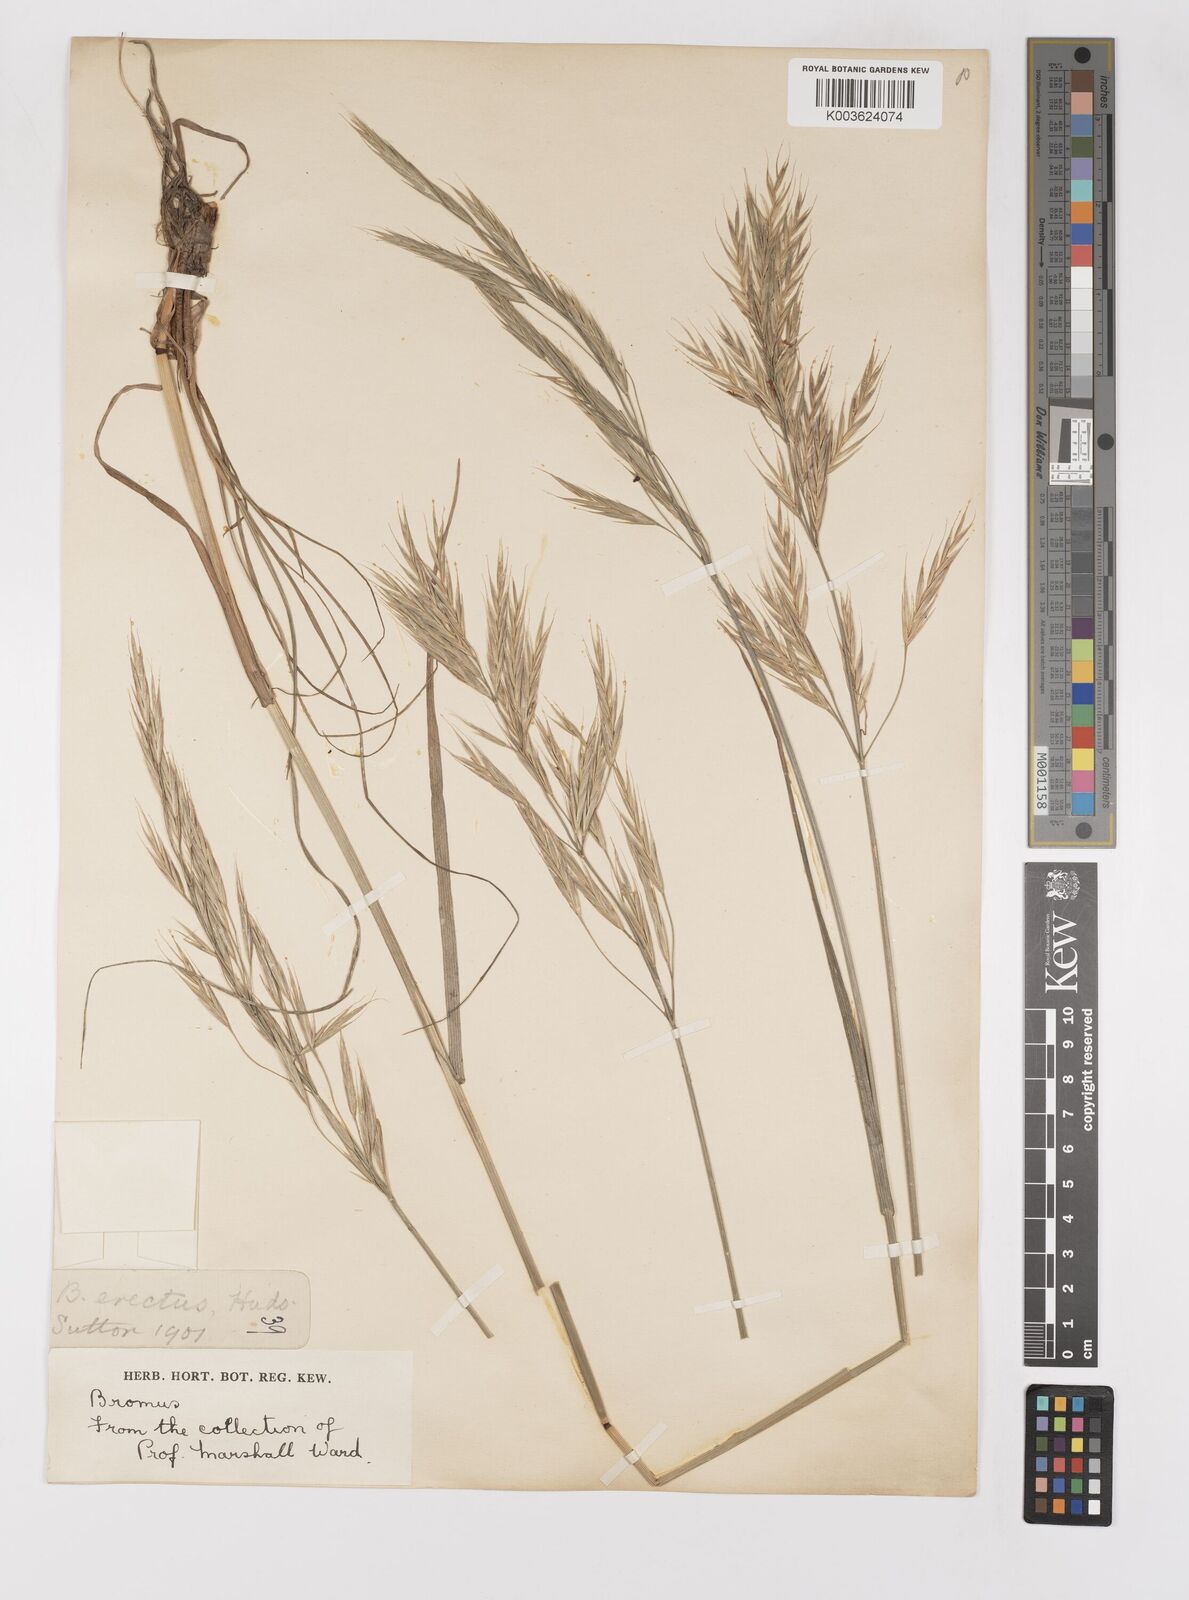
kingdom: Plantae
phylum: Tracheophyta
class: Liliopsida
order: Poales
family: Poaceae
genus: Bromus
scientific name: Bromus erectus
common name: Erect brome
